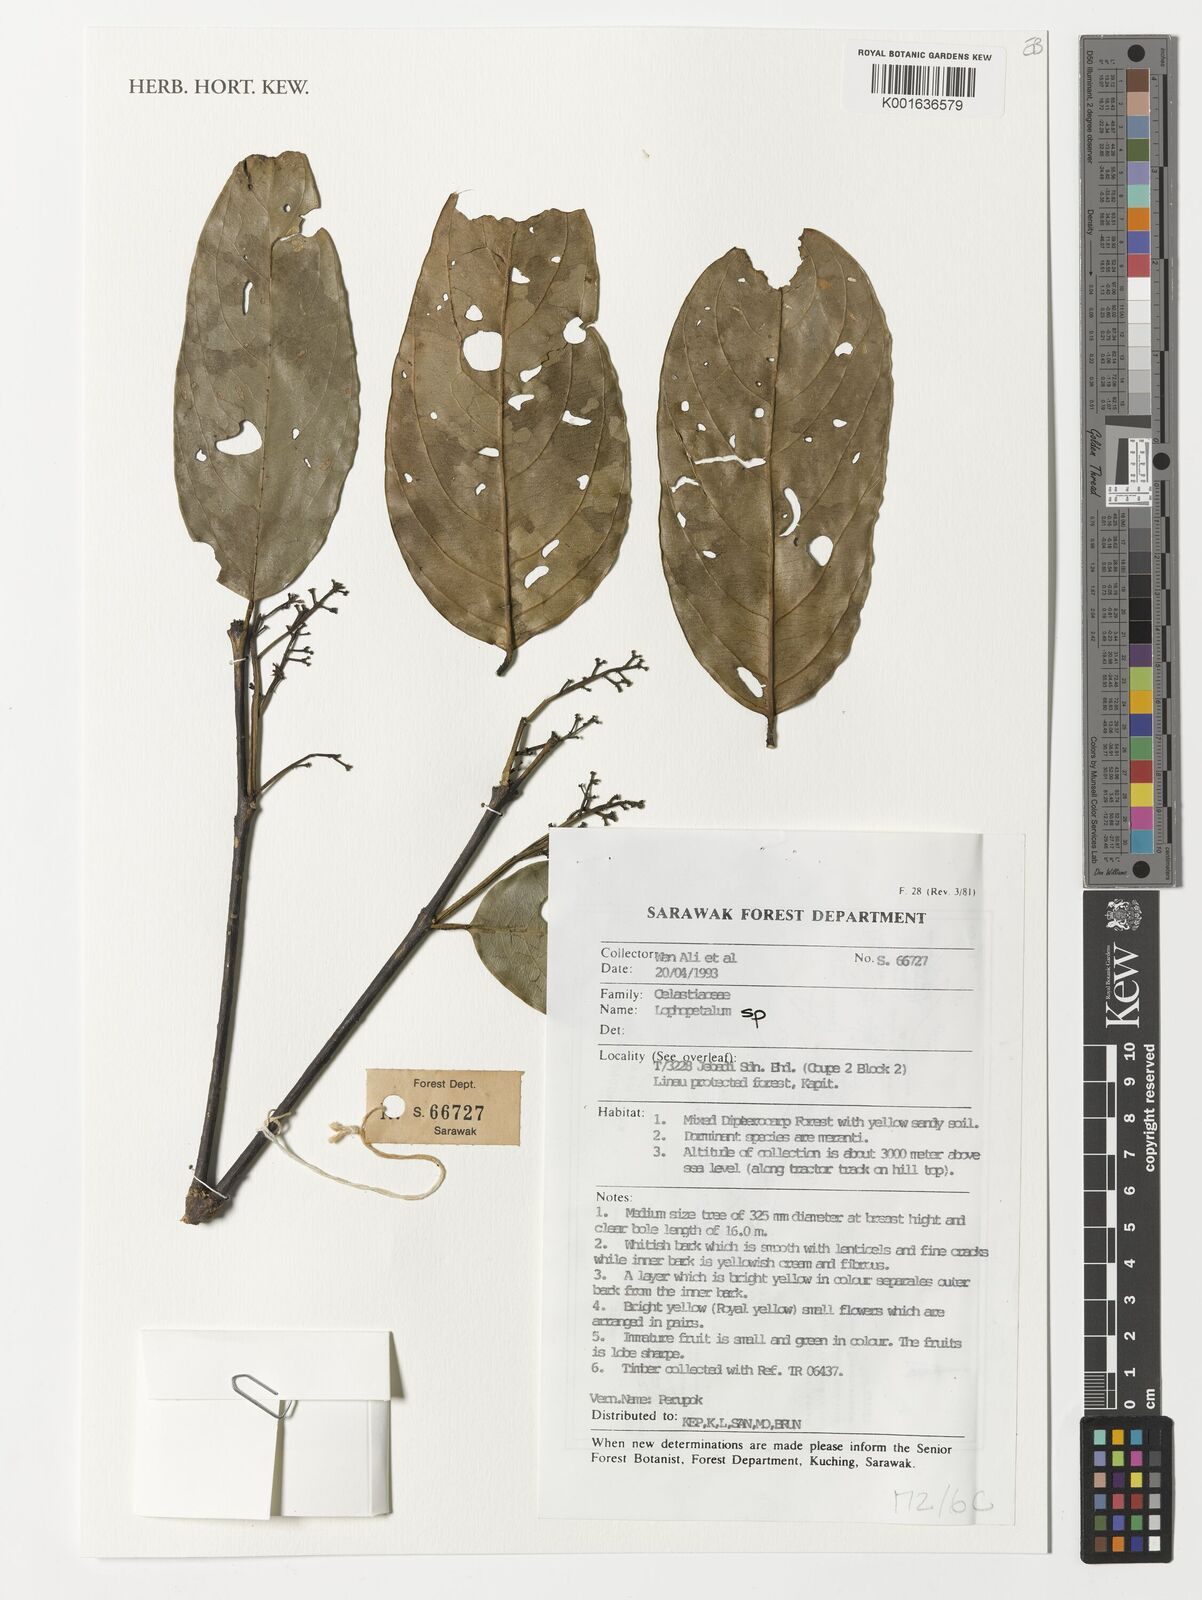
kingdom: Plantae
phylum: Tracheophyta
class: Magnoliopsida
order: Celastrales
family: Celastraceae
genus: Lophopetalum
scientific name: Lophopetalum
